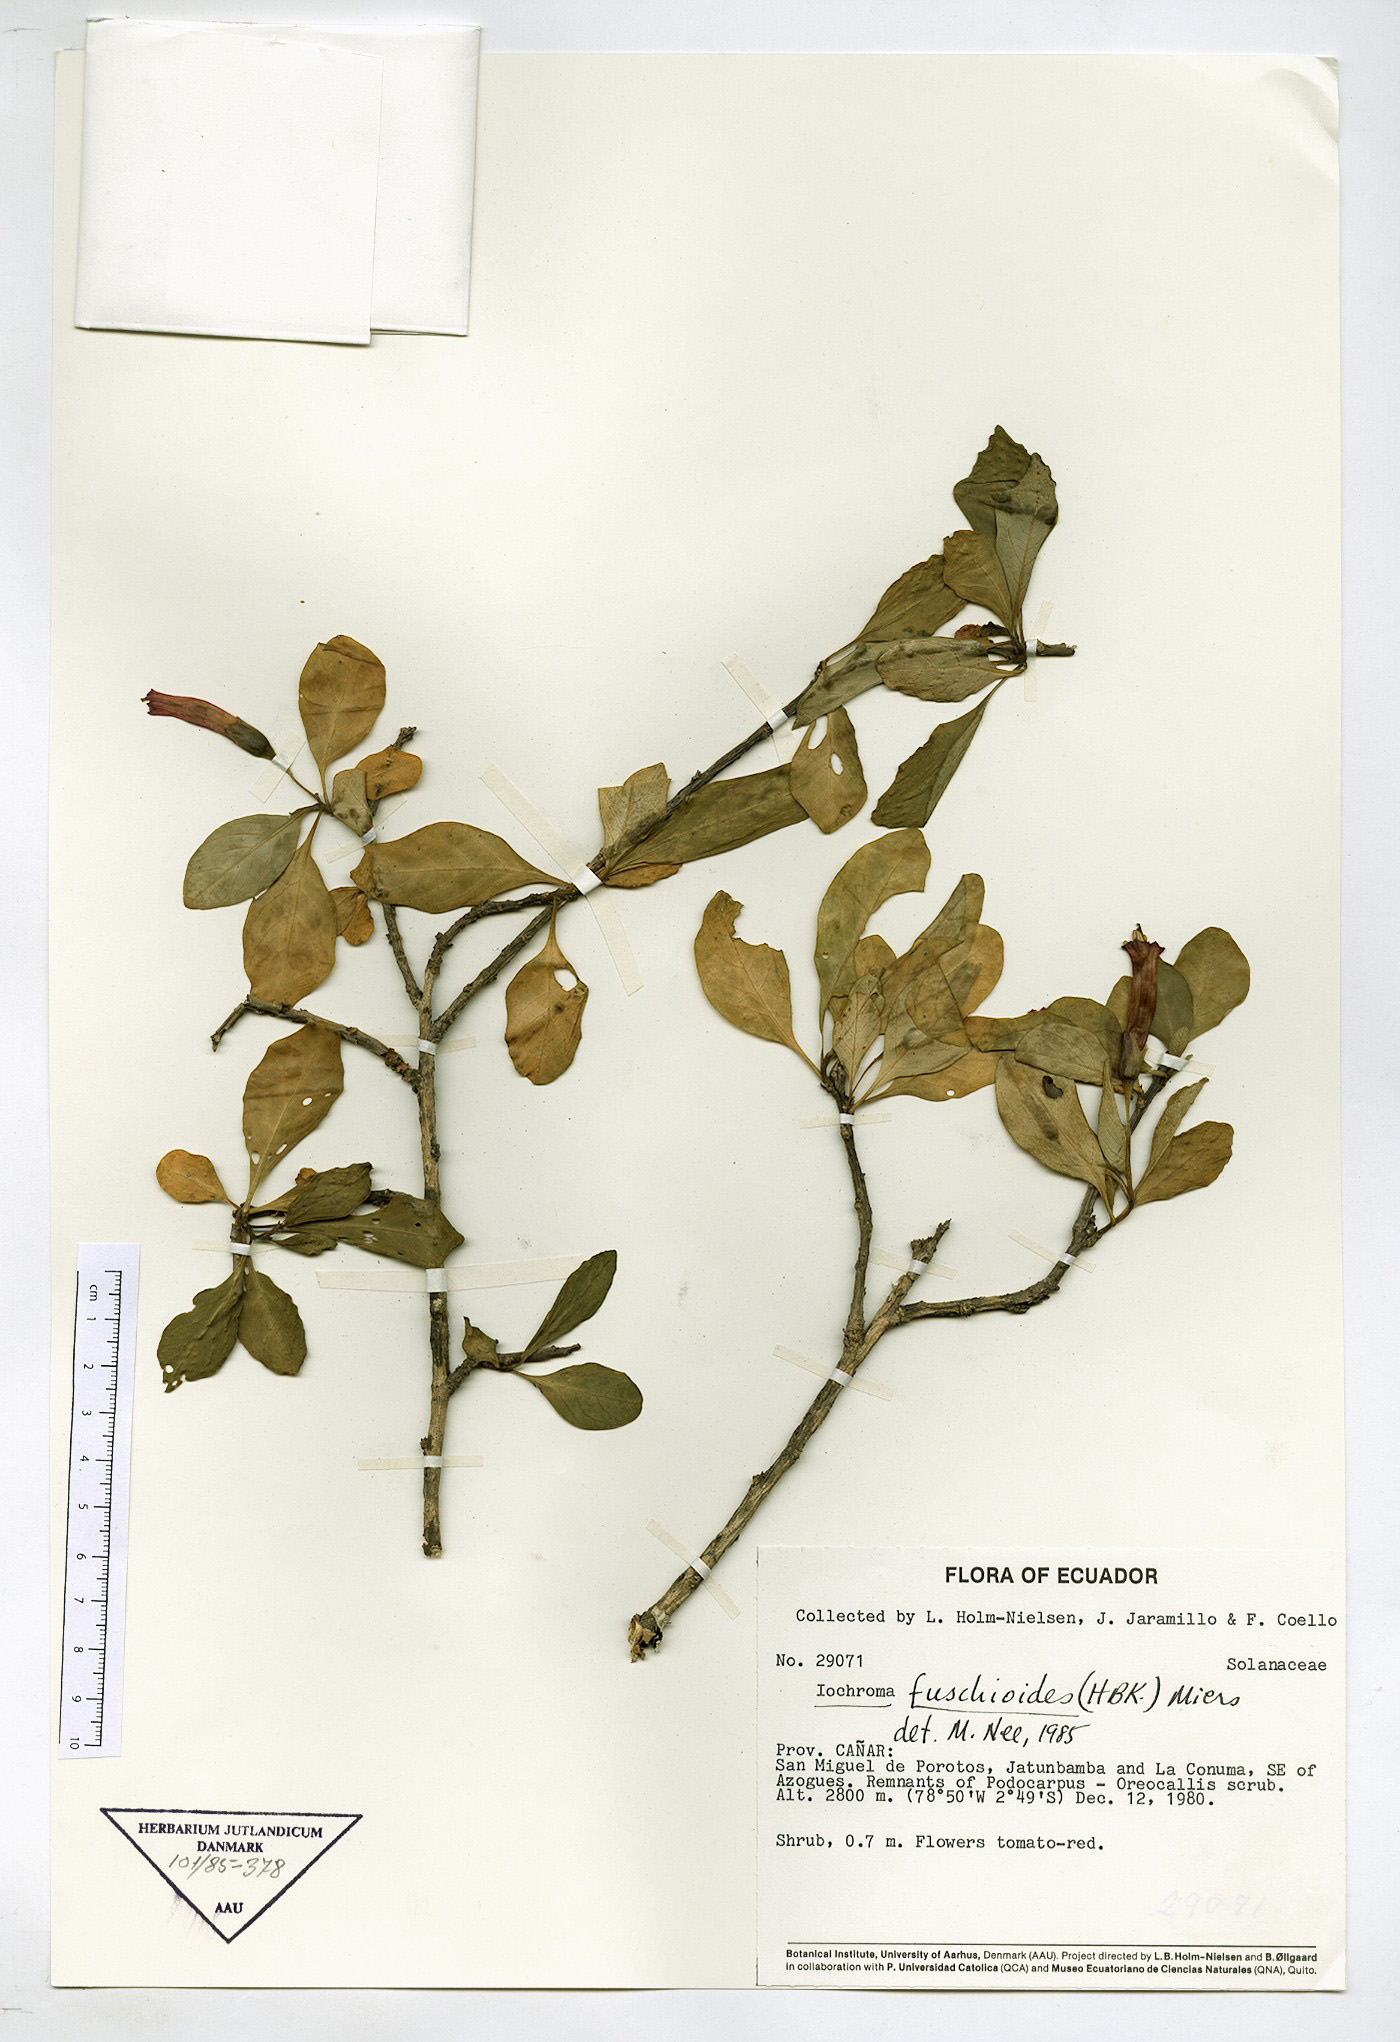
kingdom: Plantae
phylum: Tracheophyta
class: Magnoliopsida
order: Solanales
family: Solanaceae
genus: Iochroma
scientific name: Iochroma fuchsioides
